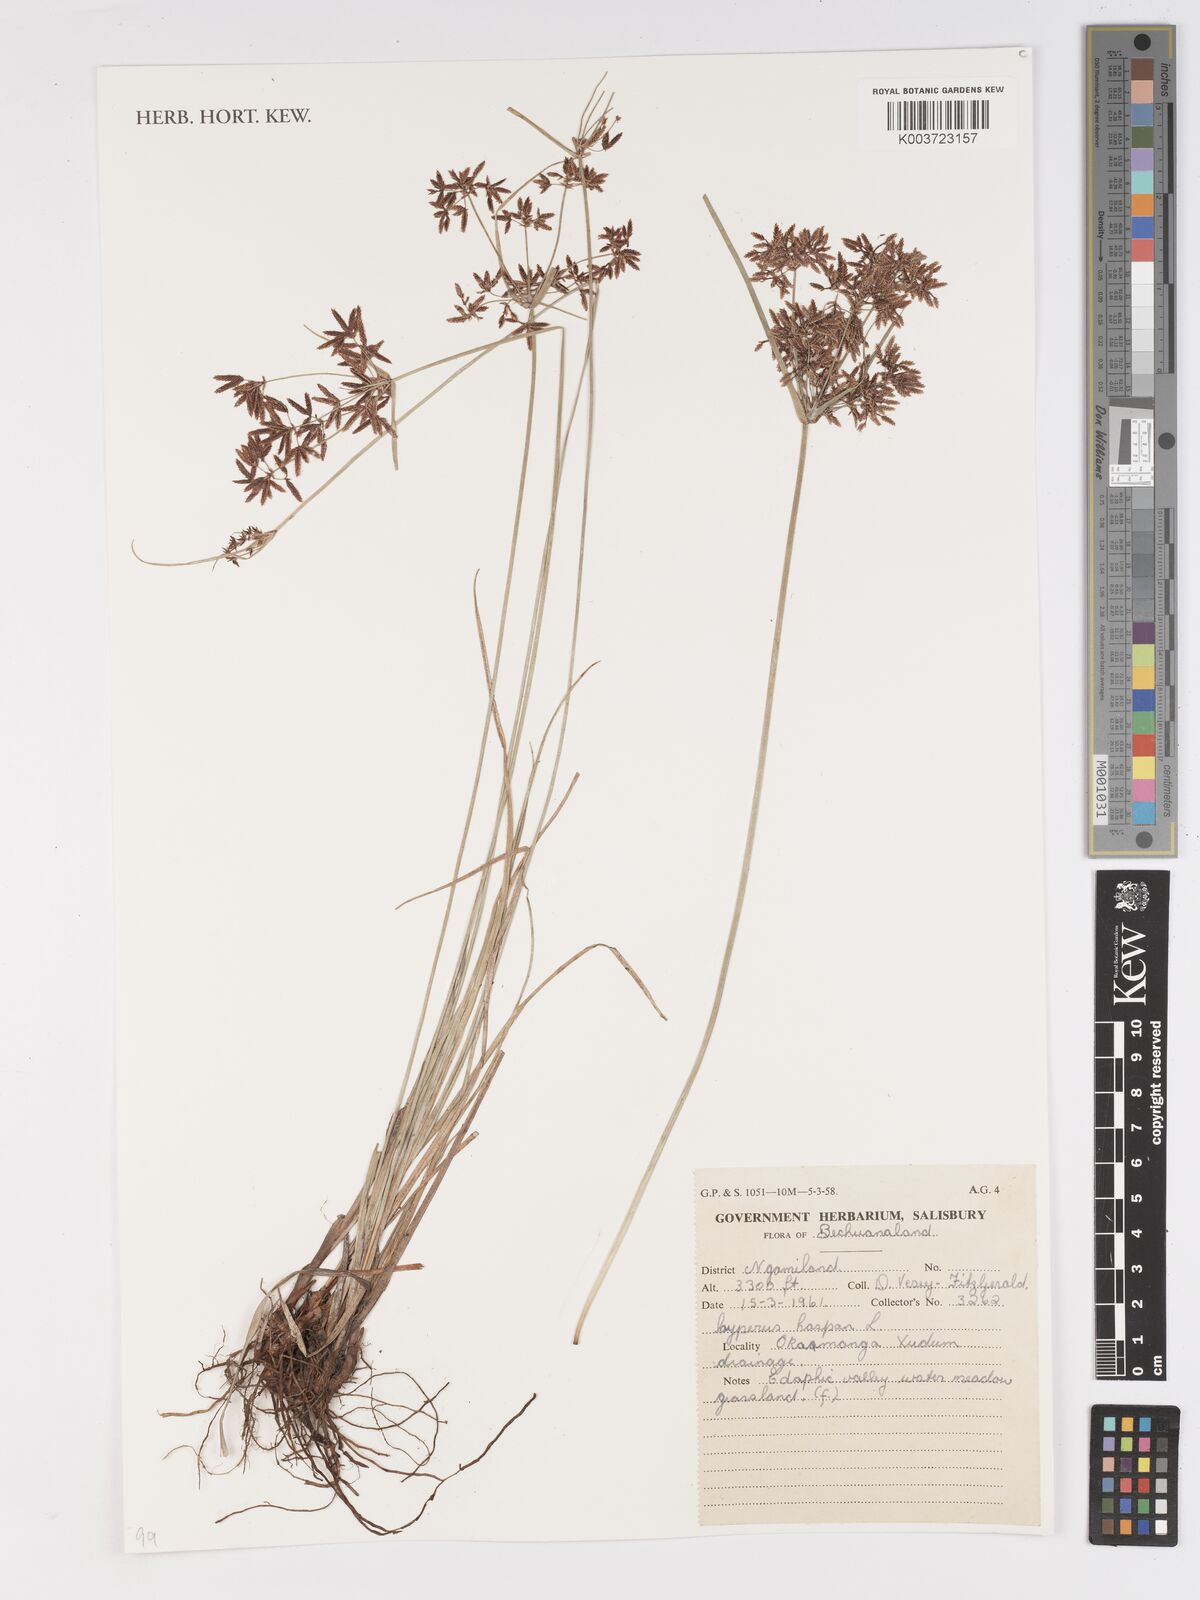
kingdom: Plantae
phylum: Tracheophyta
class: Liliopsida
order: Poales
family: Cyperaceae
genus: Cyperus
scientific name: Cyperus haspan
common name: Haspan flatsedge
